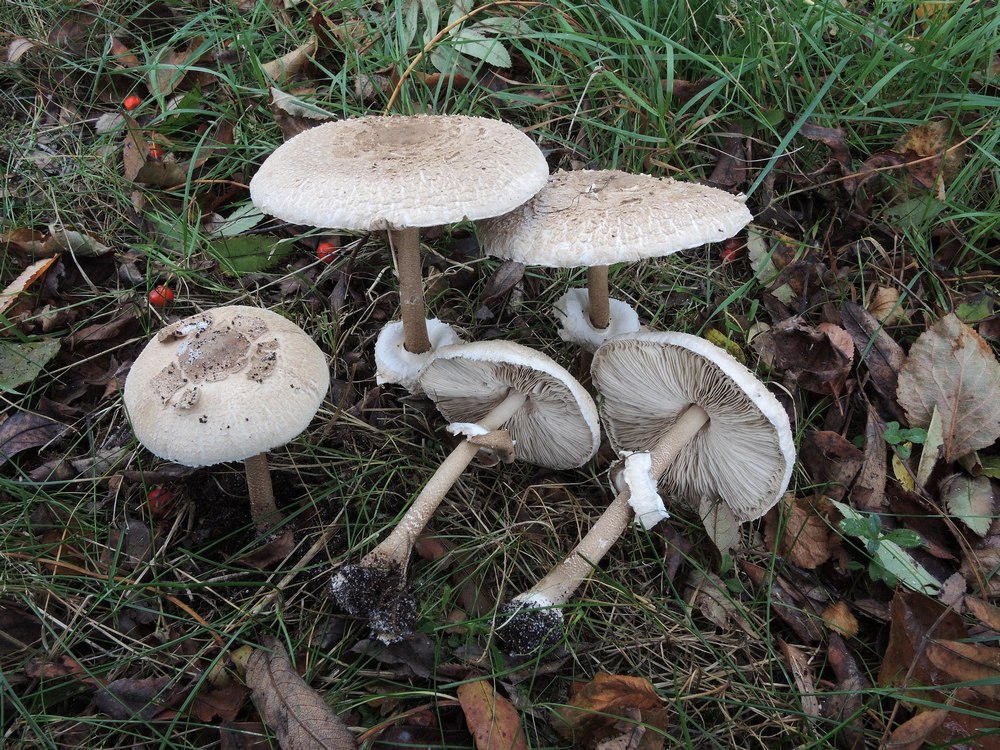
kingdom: Fungi
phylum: Basidiomycota
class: Agaricomycetes
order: Agaricales
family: Agaricaceae
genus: Macrolepiota
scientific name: Macrolepiota fuliginosa
